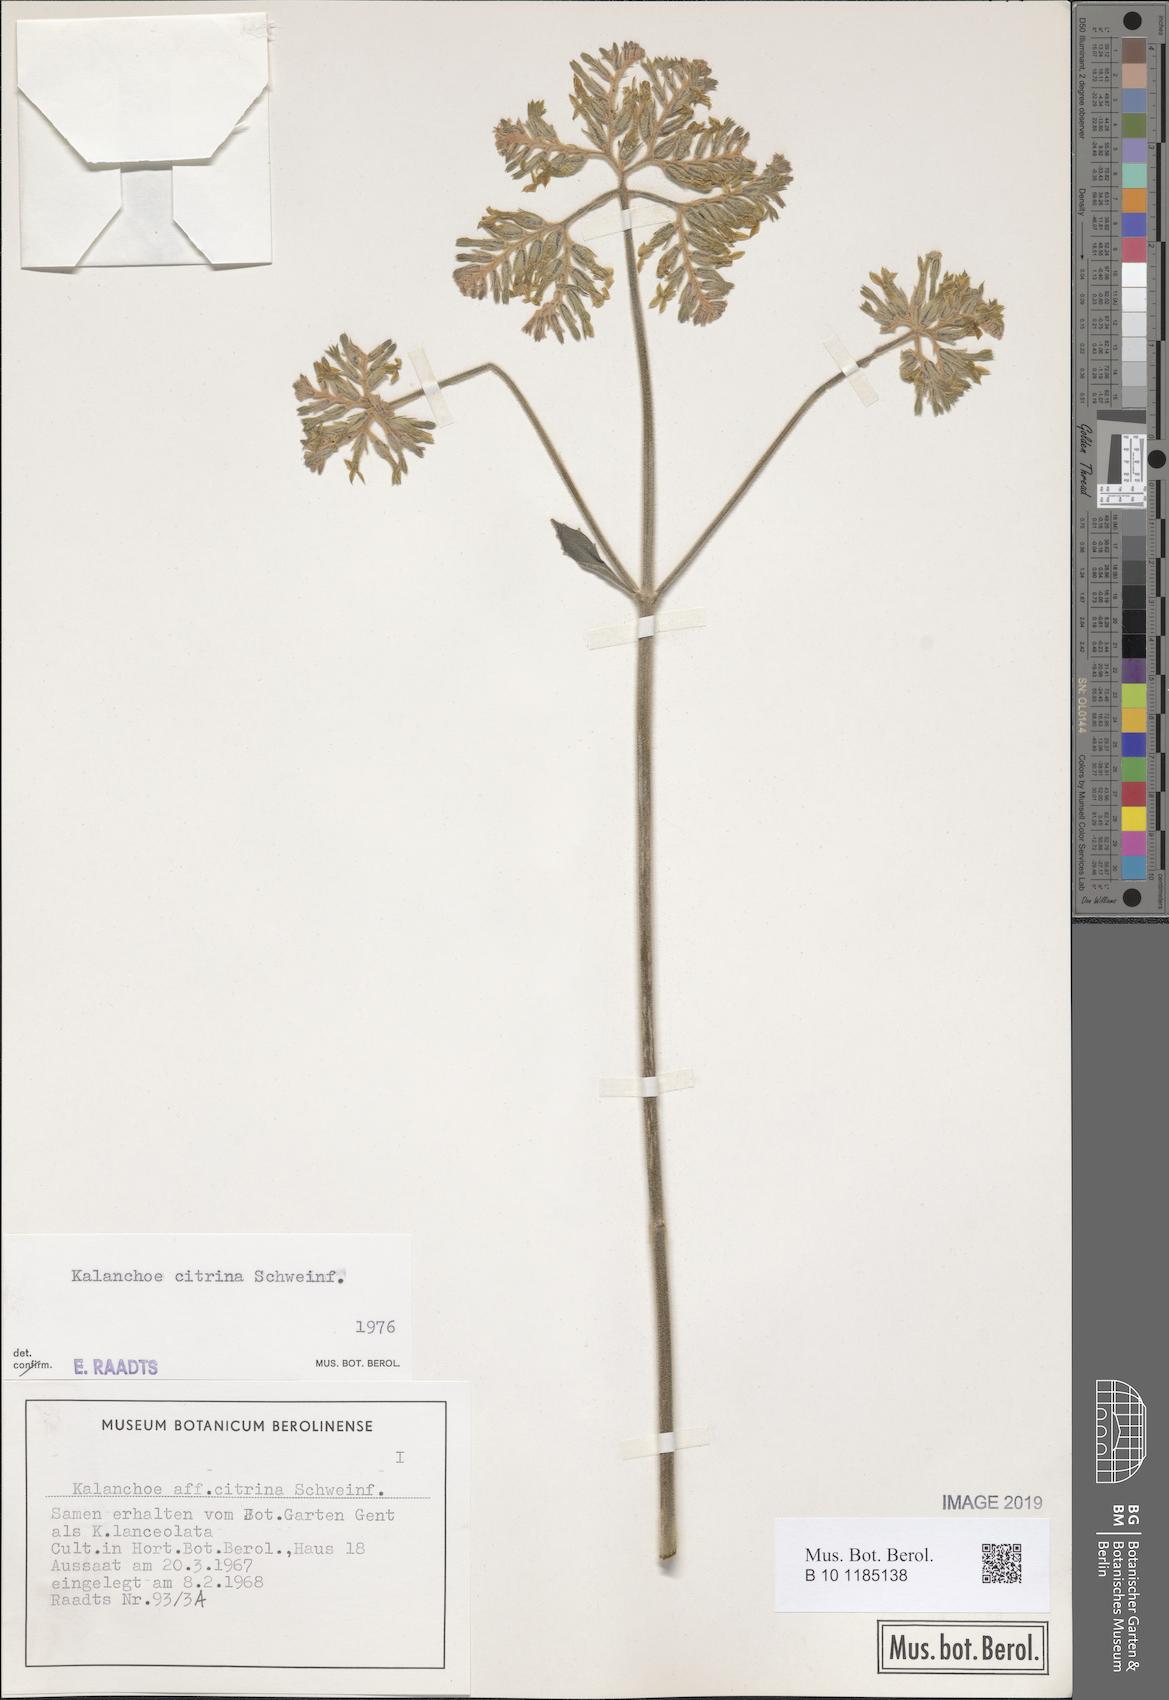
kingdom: Plantae
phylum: Tracheophyta
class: Magnoliopsida
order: Saxifragales
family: Crassulaceae
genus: Kalanchoe
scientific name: Kalanchoe citrina
